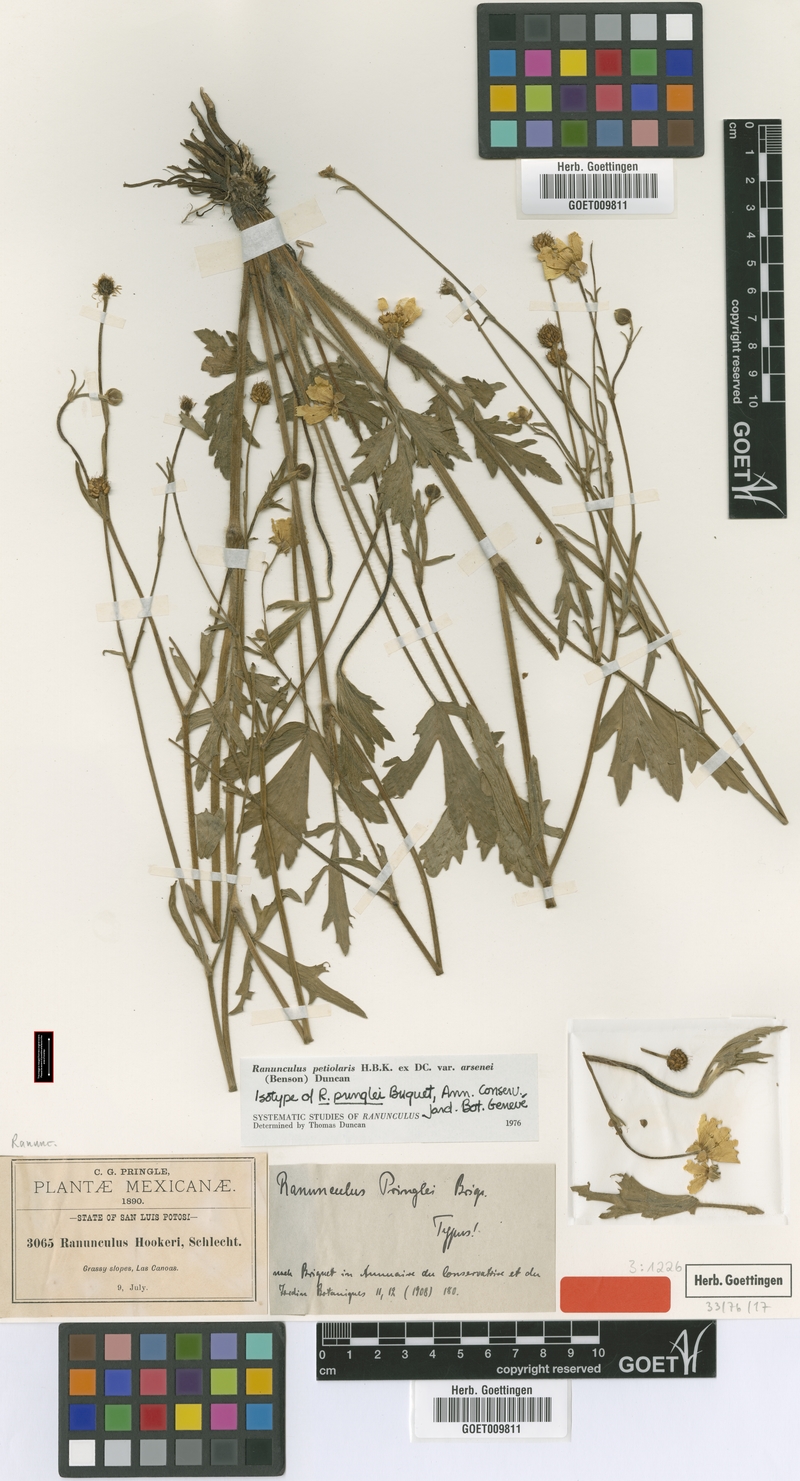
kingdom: Plantae
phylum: Tracheophyta
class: Magnoliopsida
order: Ranunculales
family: Ranunculaceae
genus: Ranunculus
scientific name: Ranunculus petiolaris
